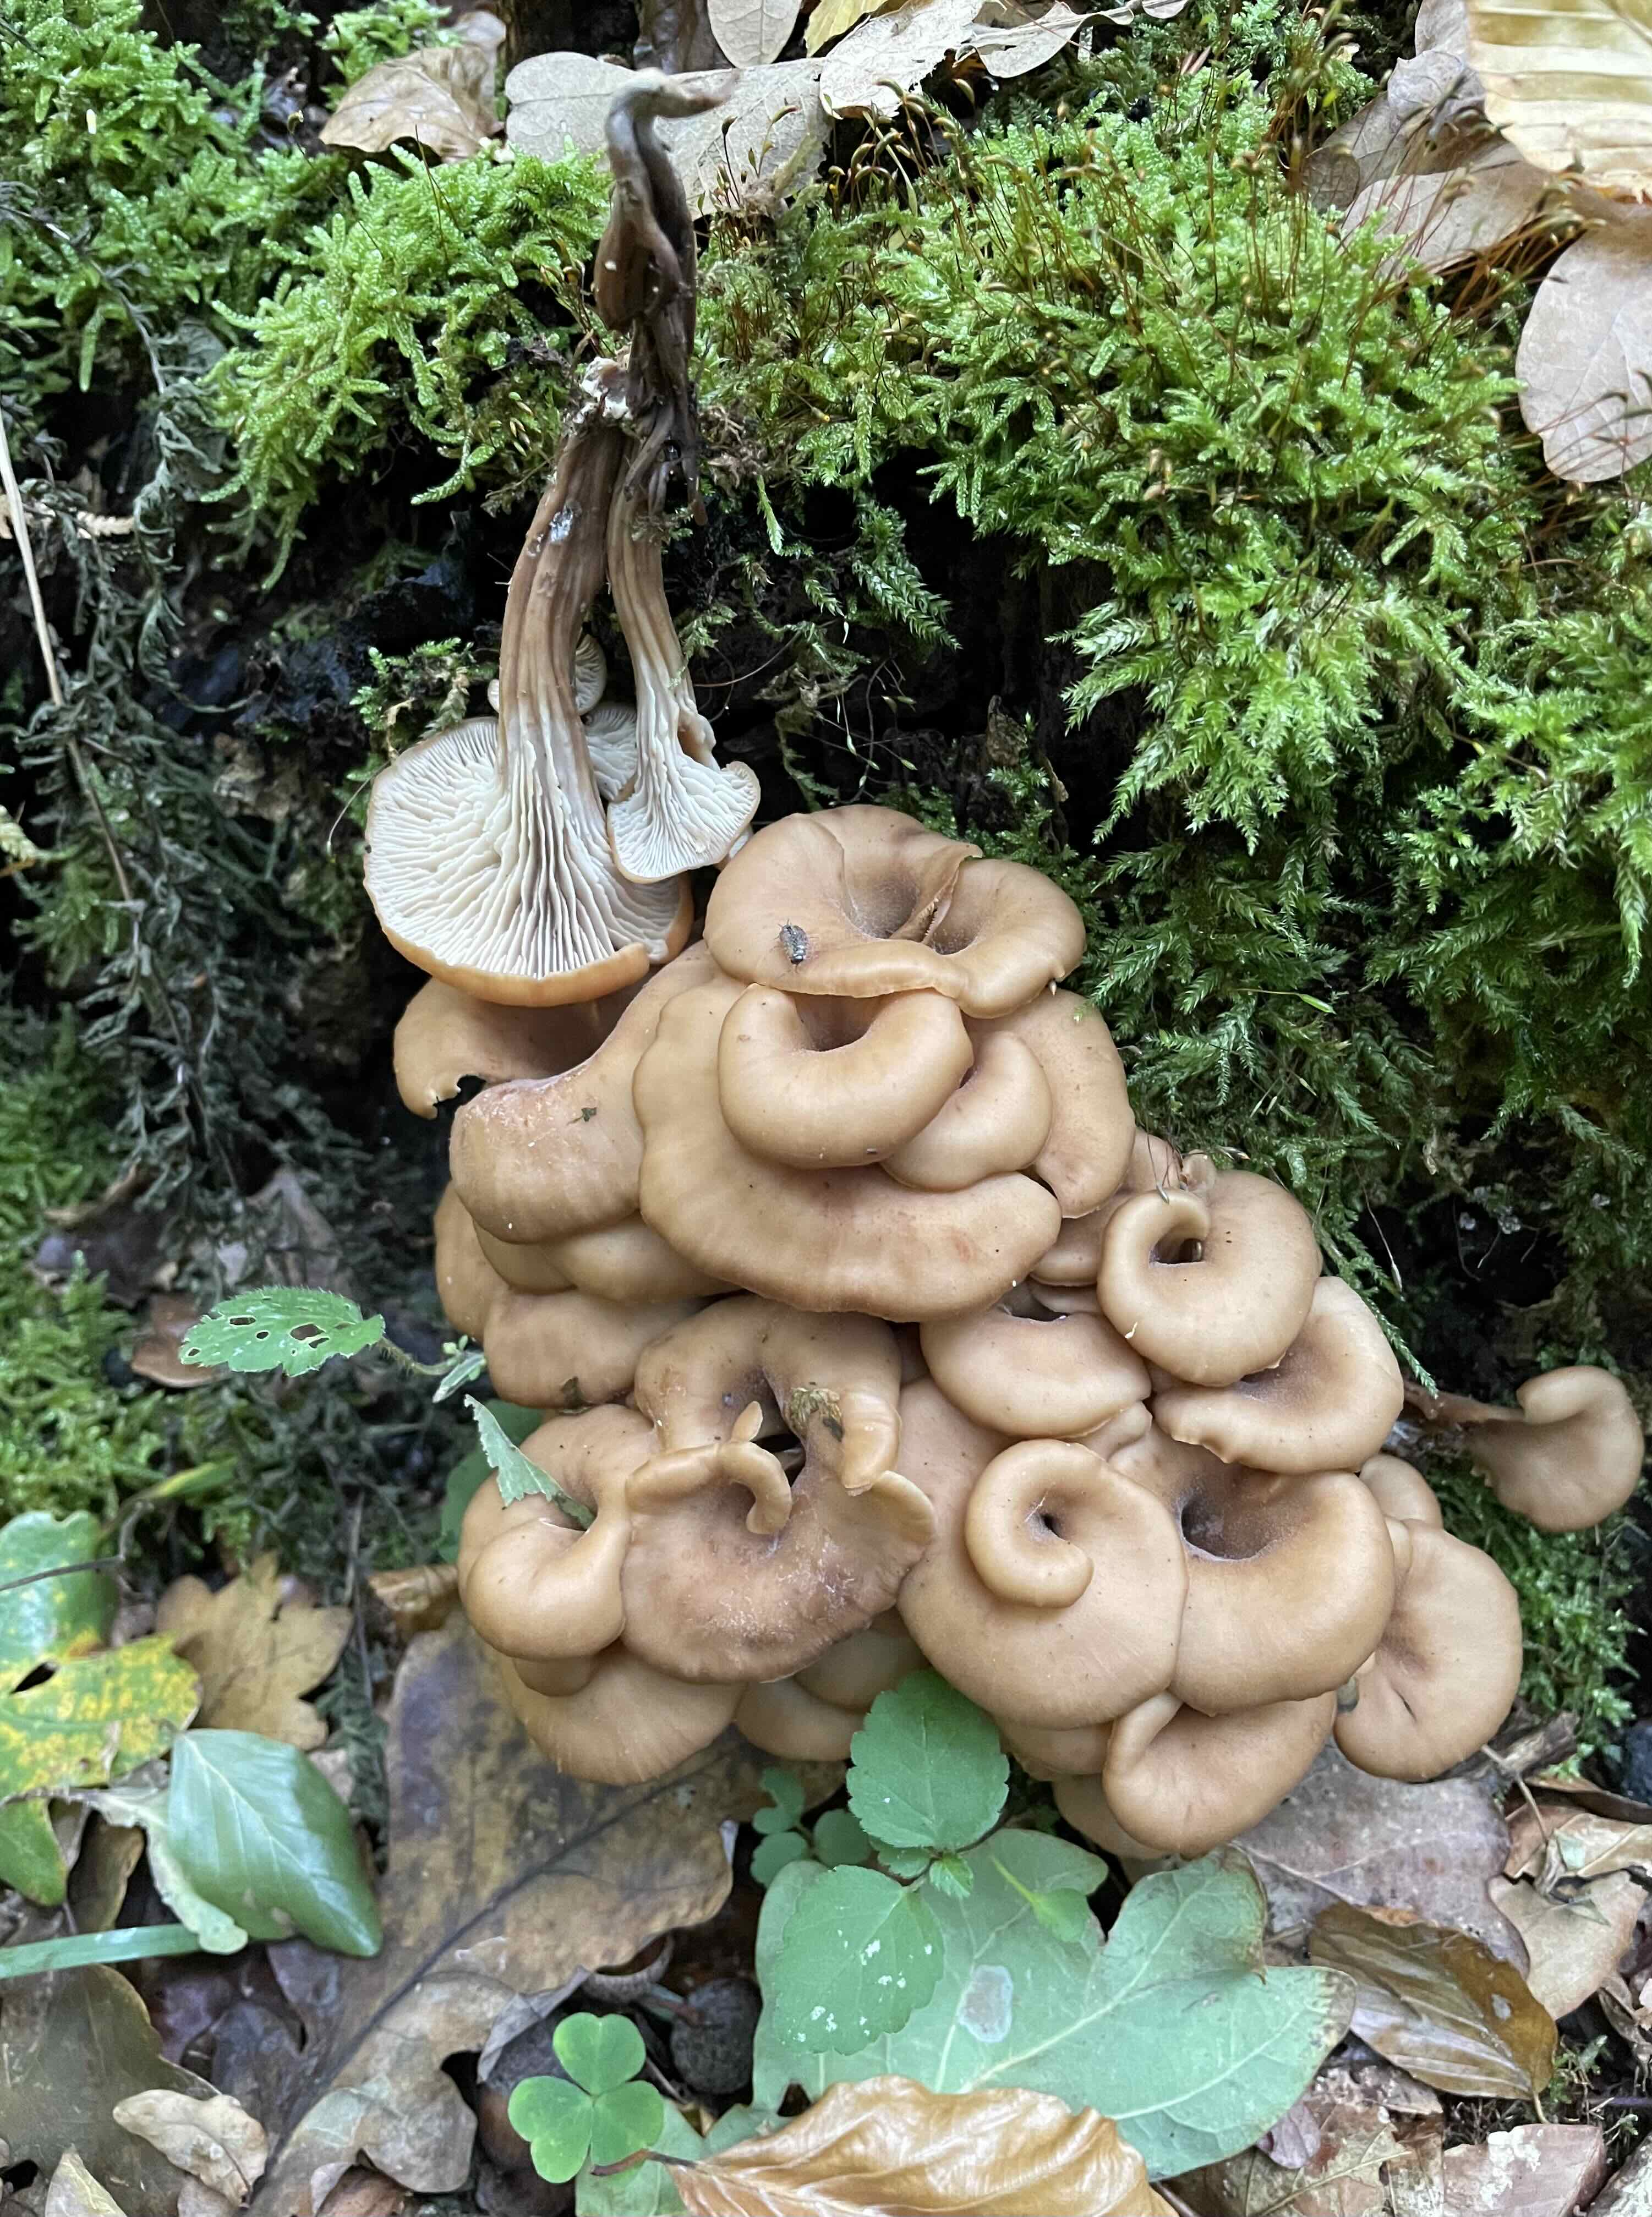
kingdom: Fungi
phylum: Basidiomycota
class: Agaricomycetes
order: Russulales
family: Auriscalpiaceae
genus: Lentinellus
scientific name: Lentinellus cochleatus
